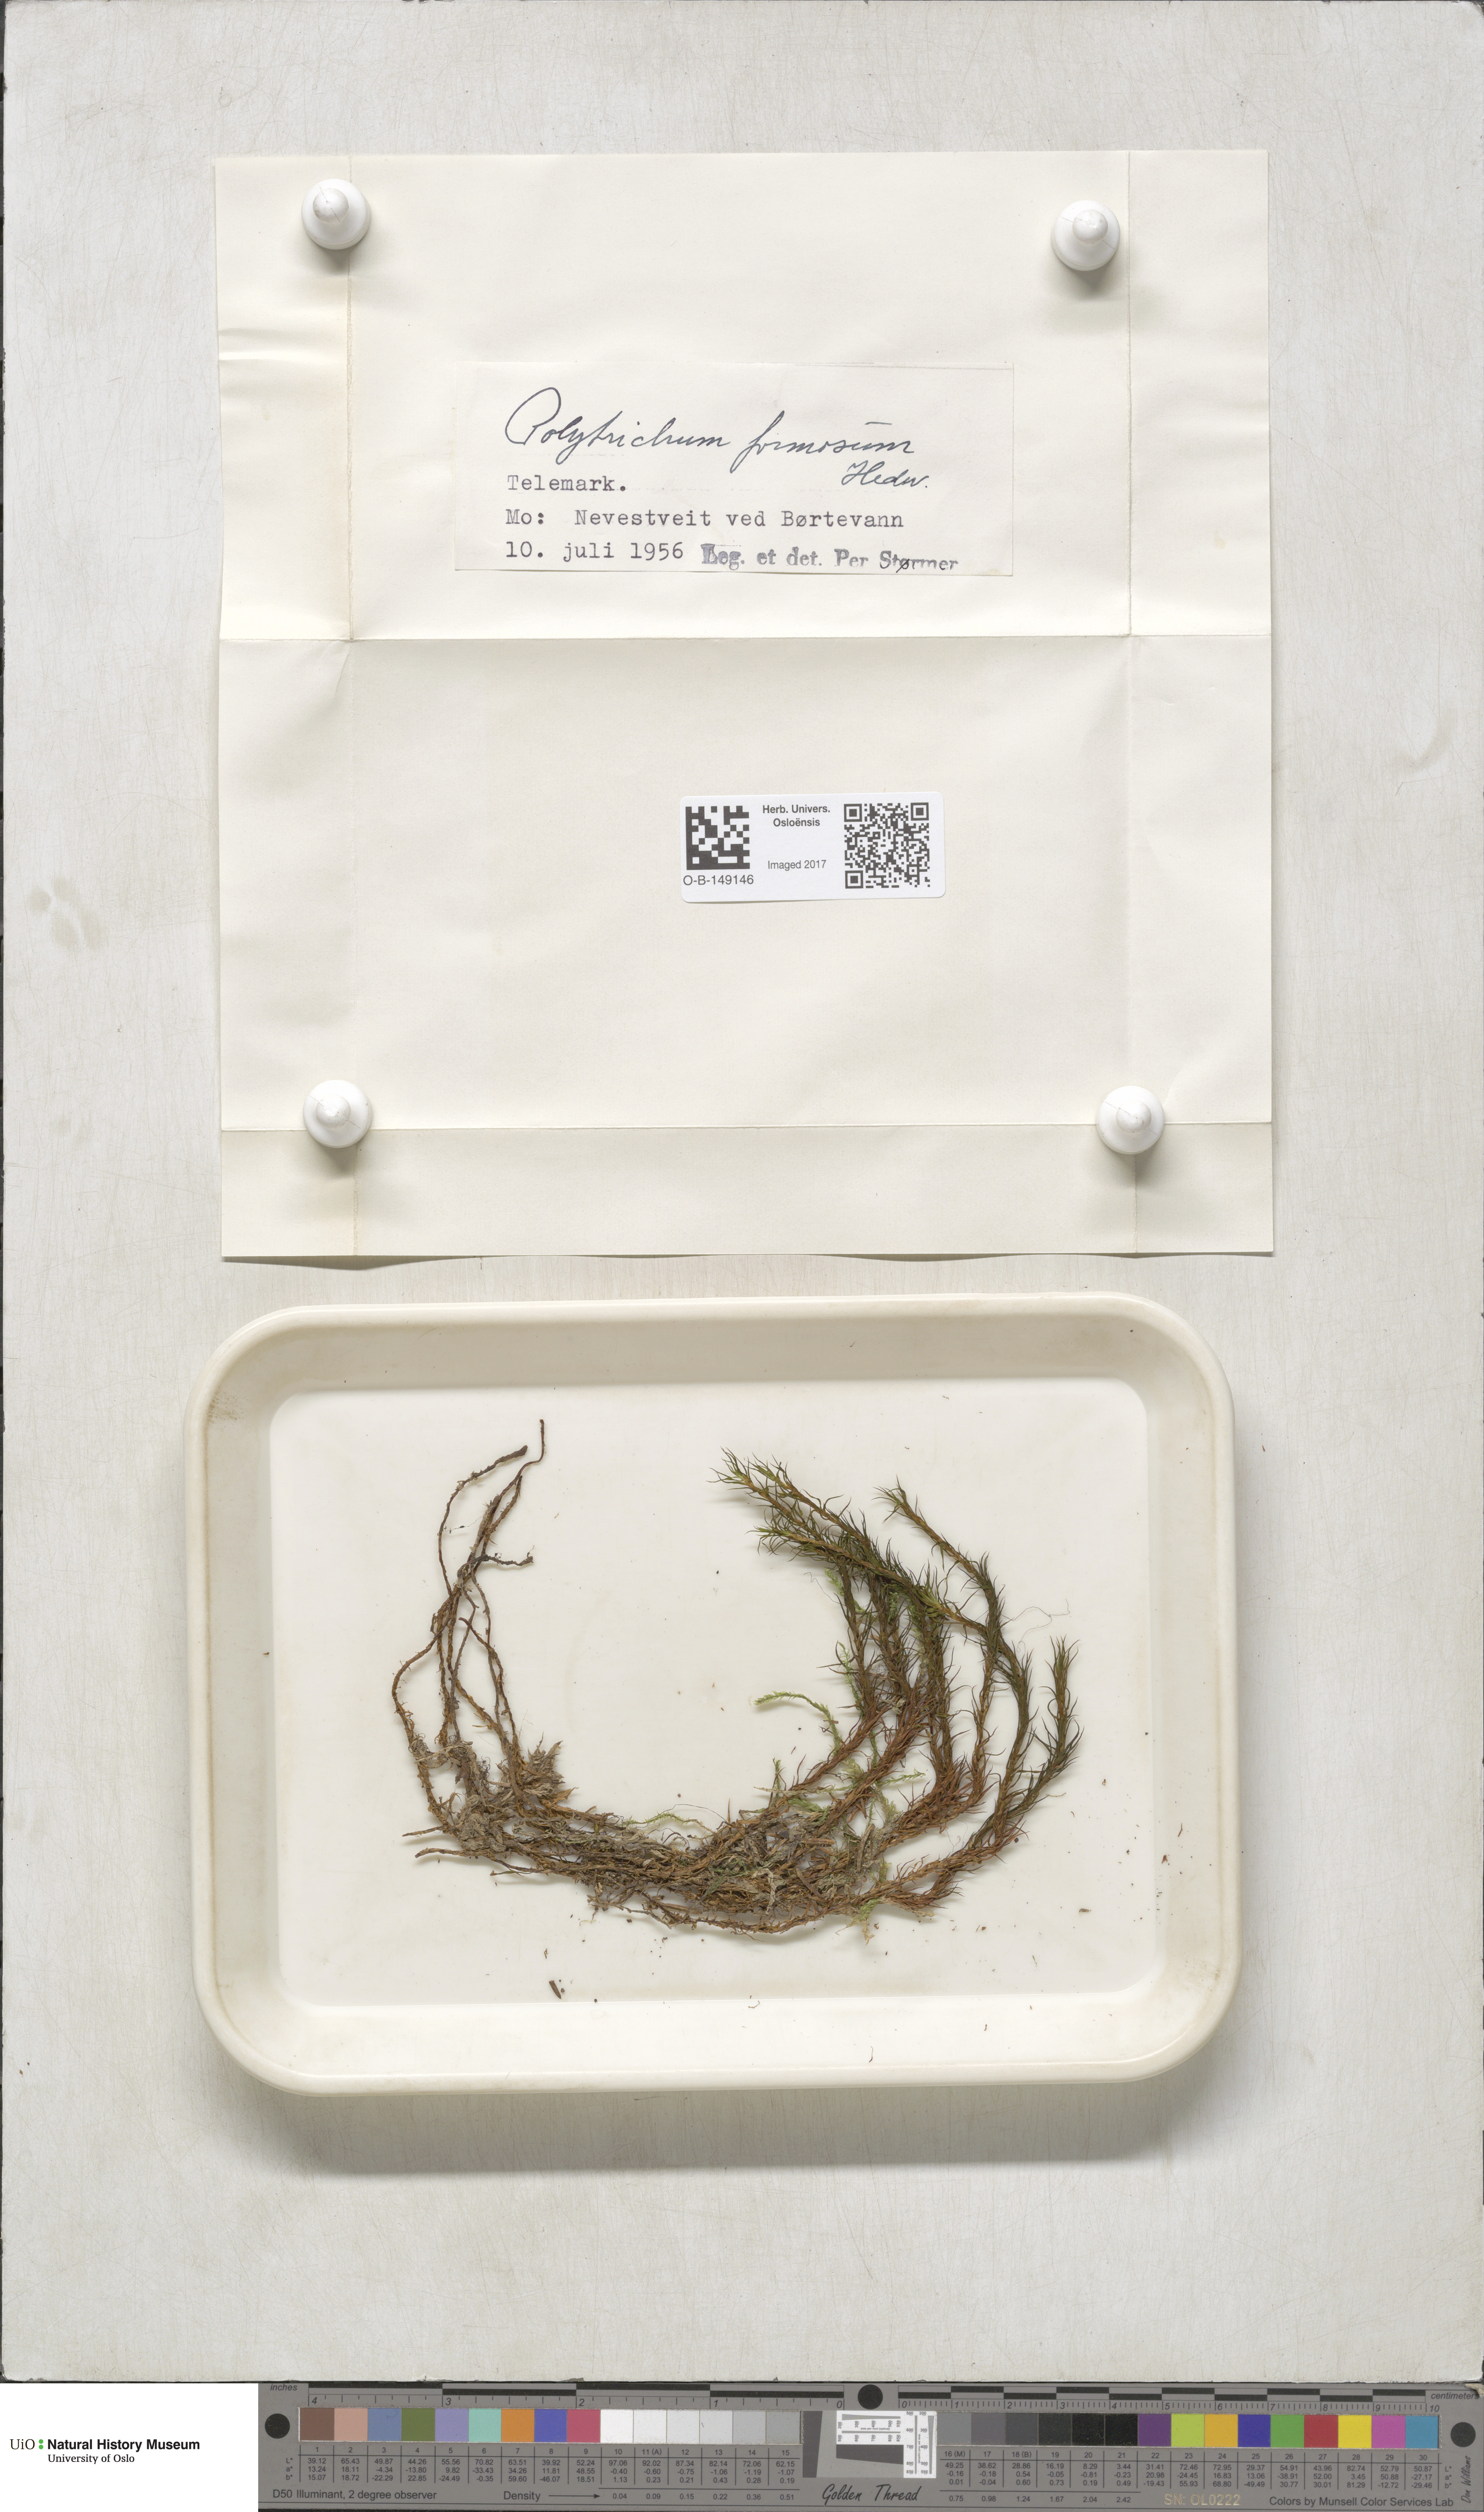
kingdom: Plantae
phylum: Bryophyta
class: Polytrichopsida
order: Polytrichales
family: Polytrichaceae
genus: Polytrichum
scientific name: Polytrichum formosum
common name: Bank haircap moss
